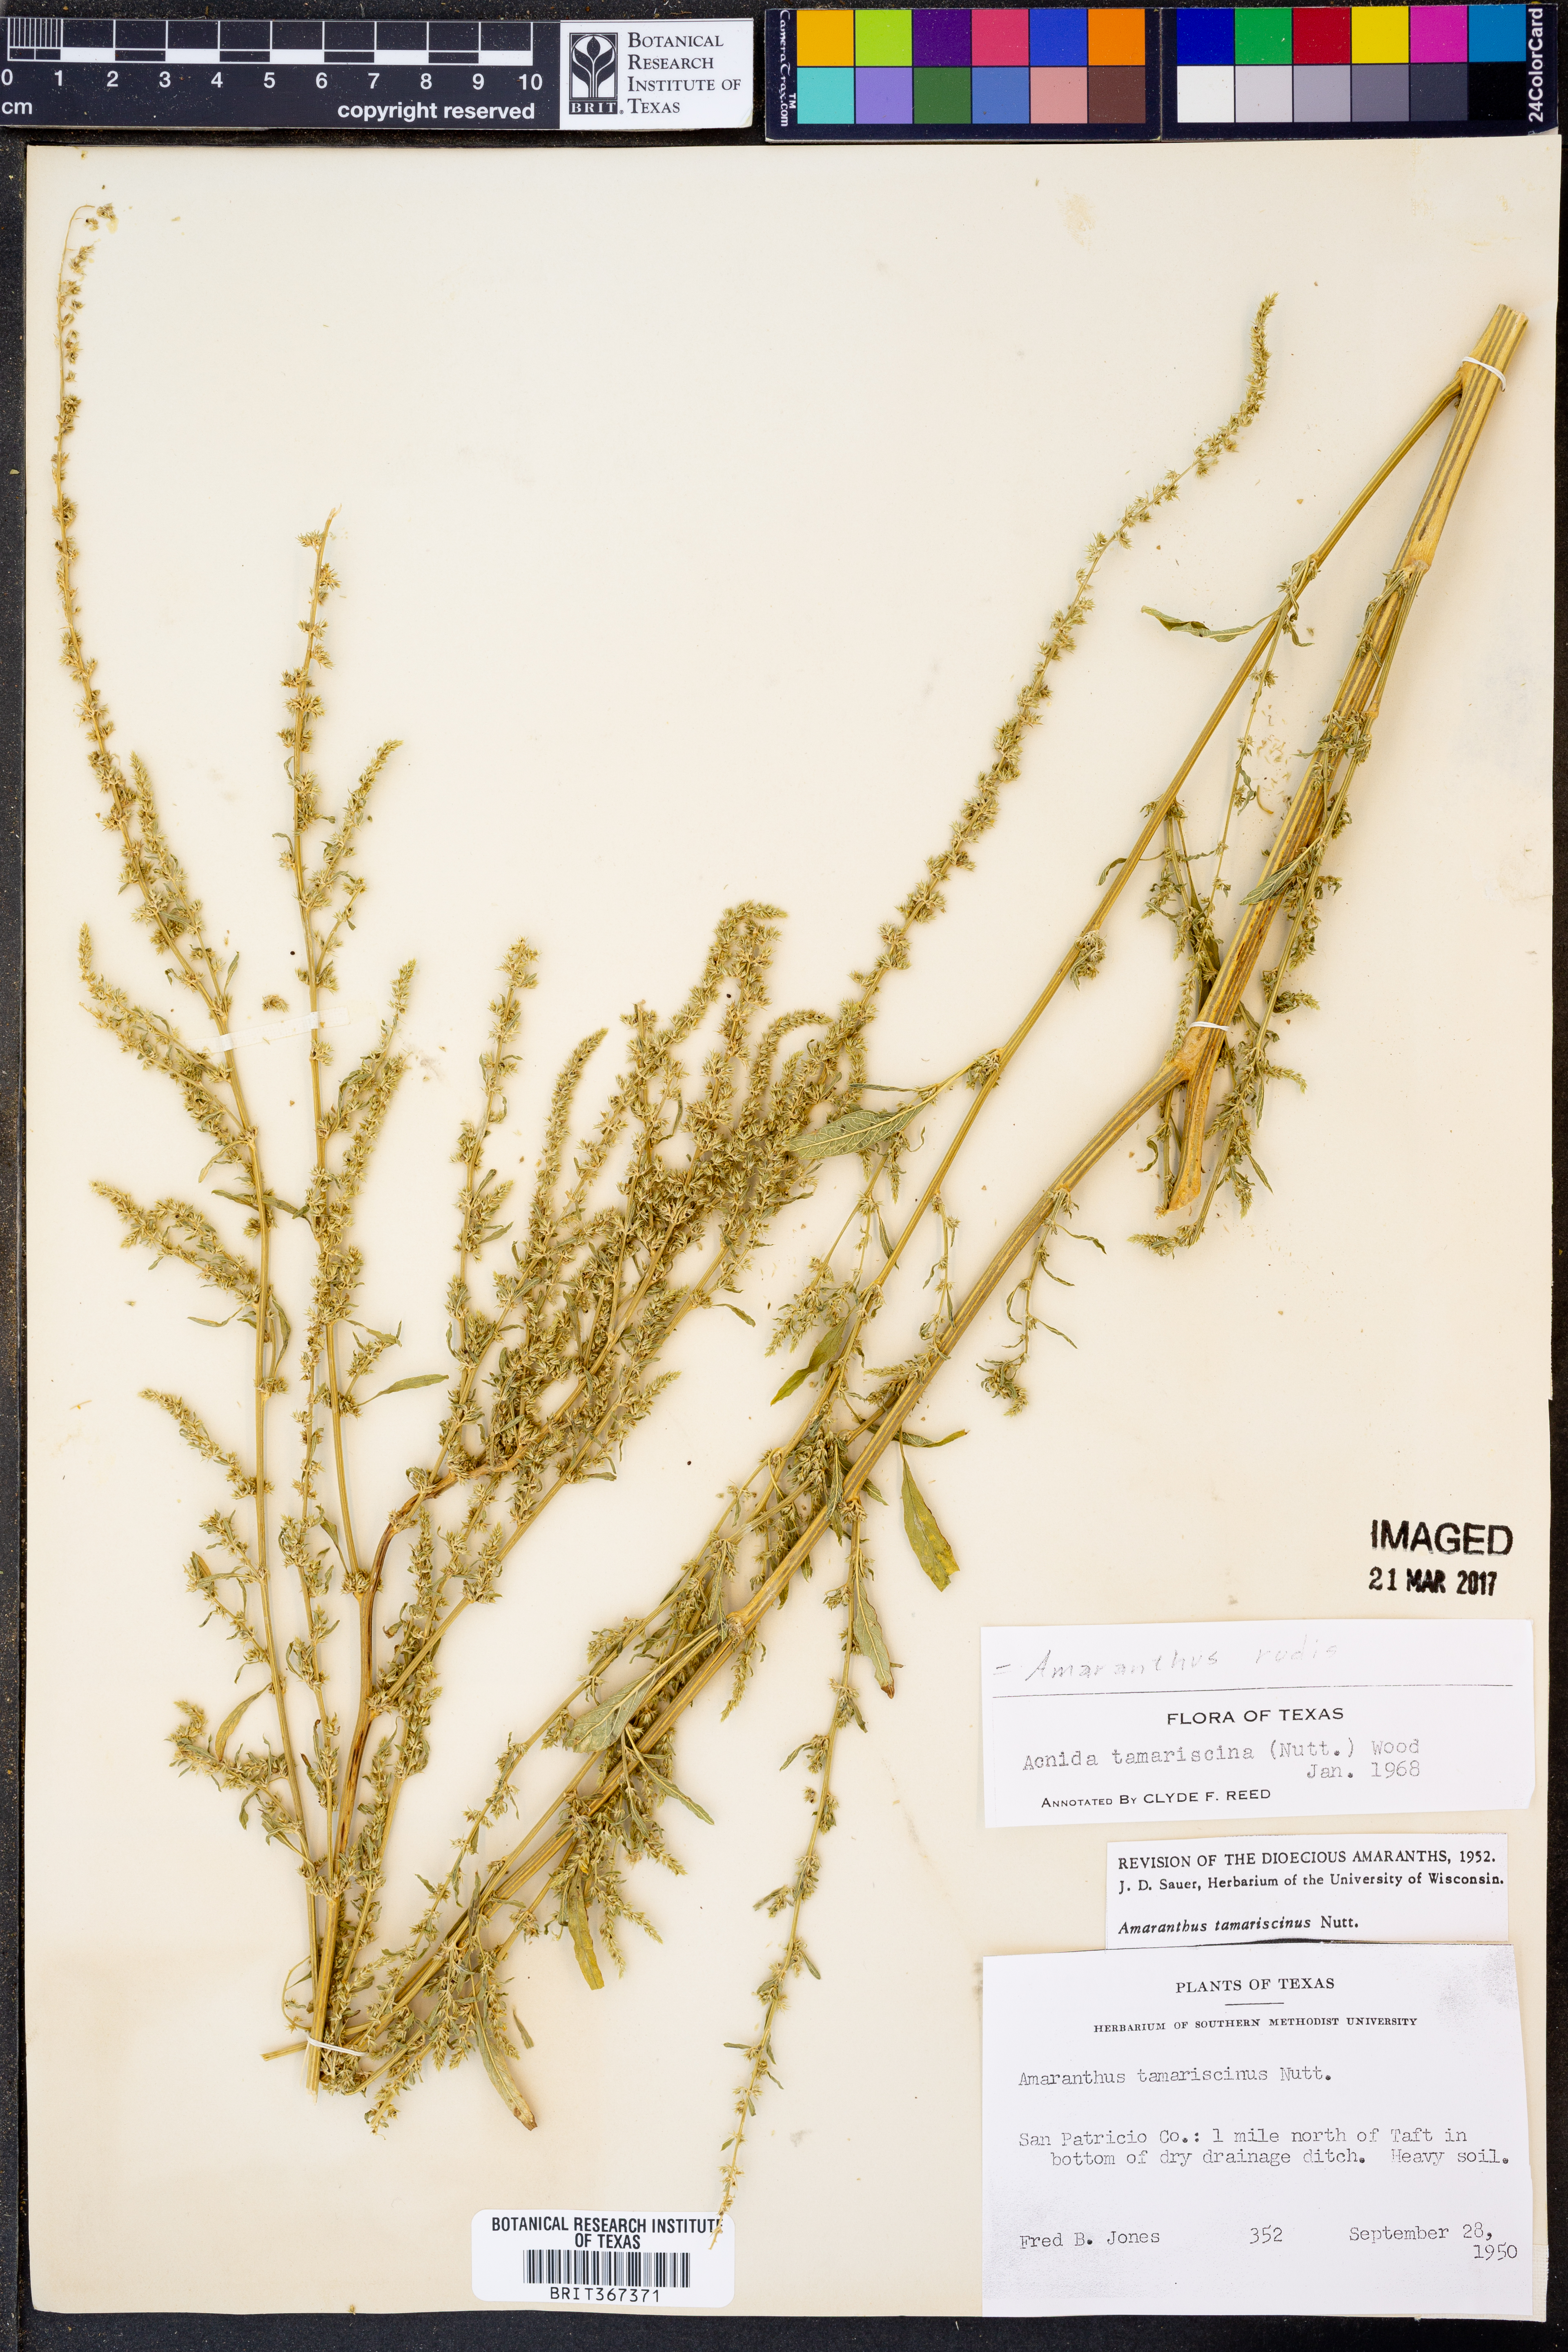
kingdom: Plantae
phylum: Tracheophyta
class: Magnoliopsida
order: Caryophyllales
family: Amaranthaceae
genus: Amaranthus
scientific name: Amaranthus tuberculatus
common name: Rough-fruit amaranth
